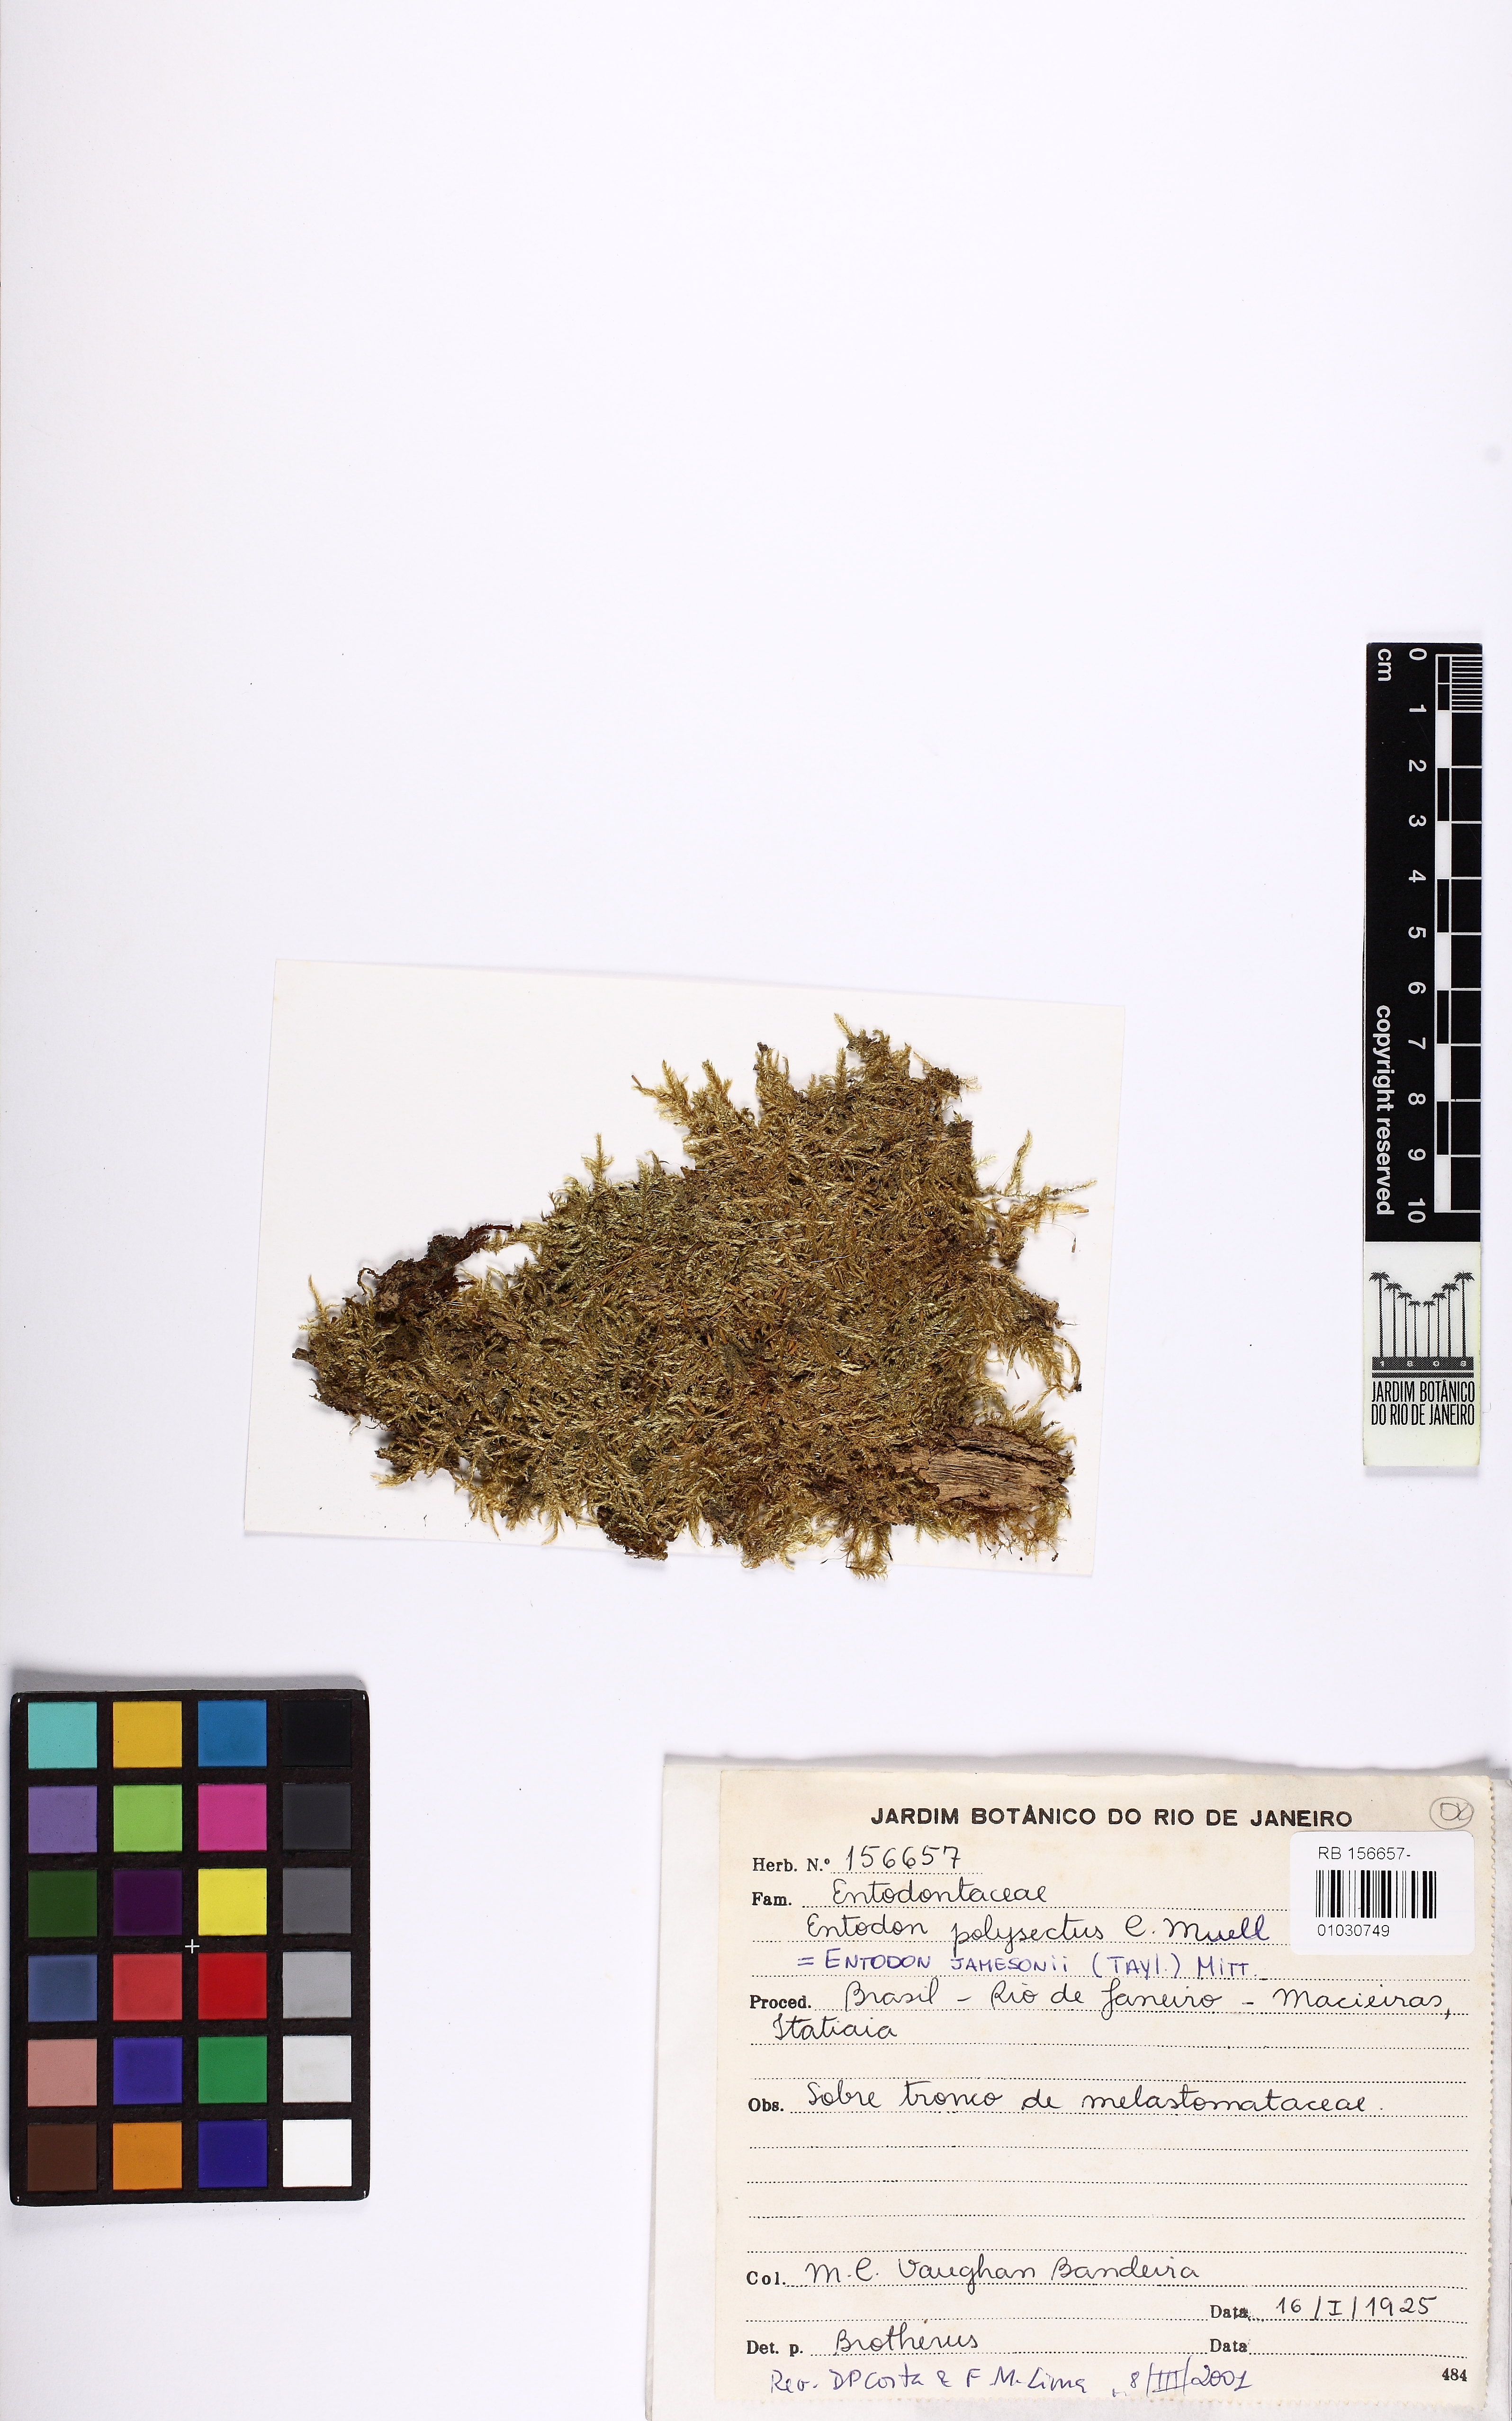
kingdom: Plantae
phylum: Bryophyta
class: Bryopsida
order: Hypnales
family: Entodontaceae
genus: Entodon
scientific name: Entodon jamesonii
